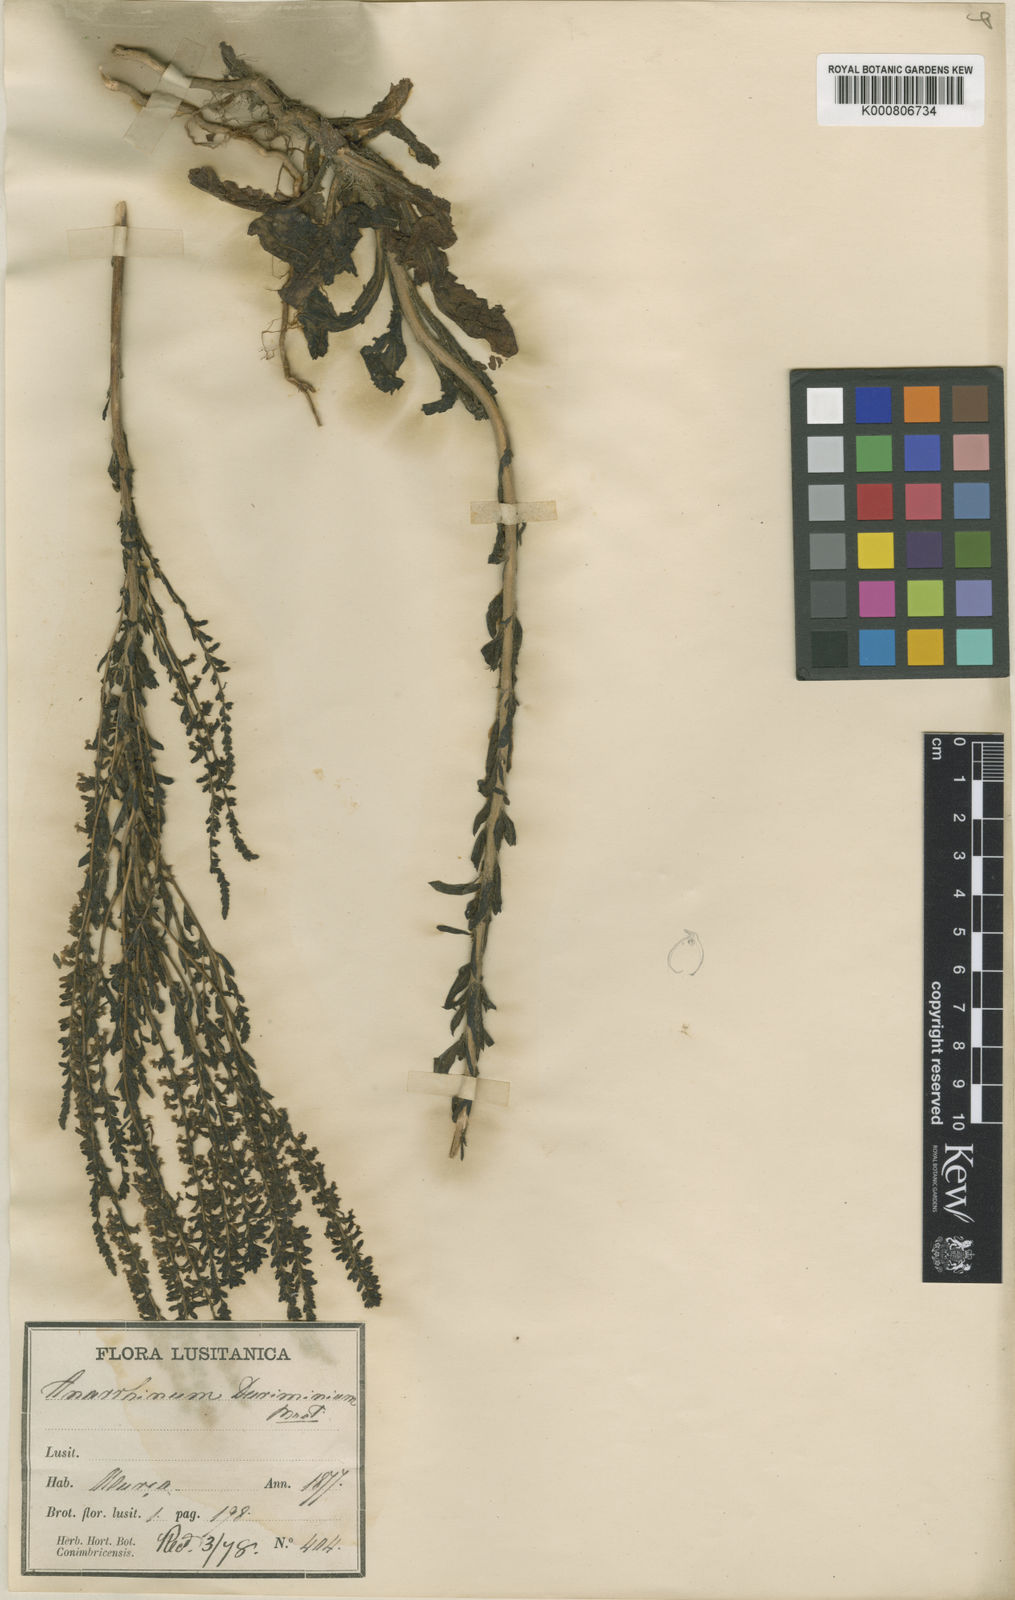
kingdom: Plantae
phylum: Tracheophyta
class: Magnoliopsida
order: Lamiales
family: Plantaginaceae
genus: Anarrhinum
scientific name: Anarrhinum duriminium
